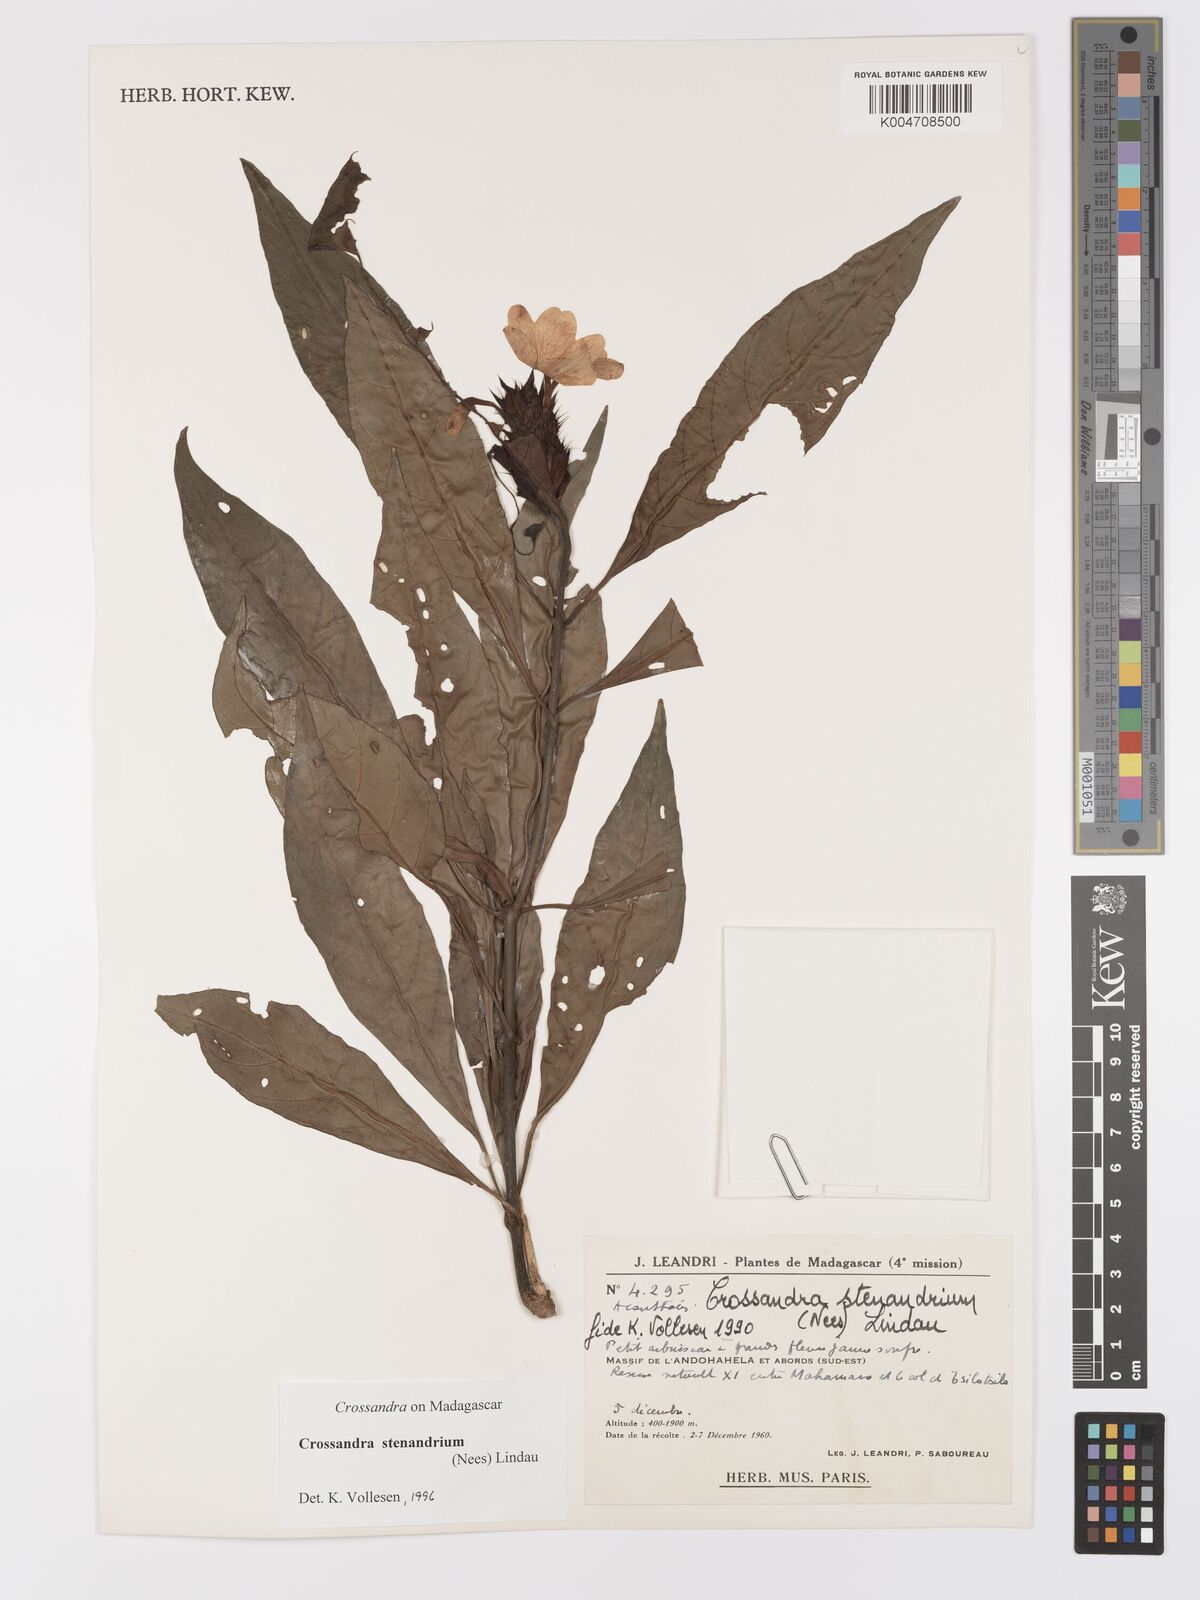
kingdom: Plantae
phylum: Tracheophyta
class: Magnoliopsida
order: Lamiales
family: Acanthaceae
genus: Crossandra
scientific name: Crossandra stenandrium
